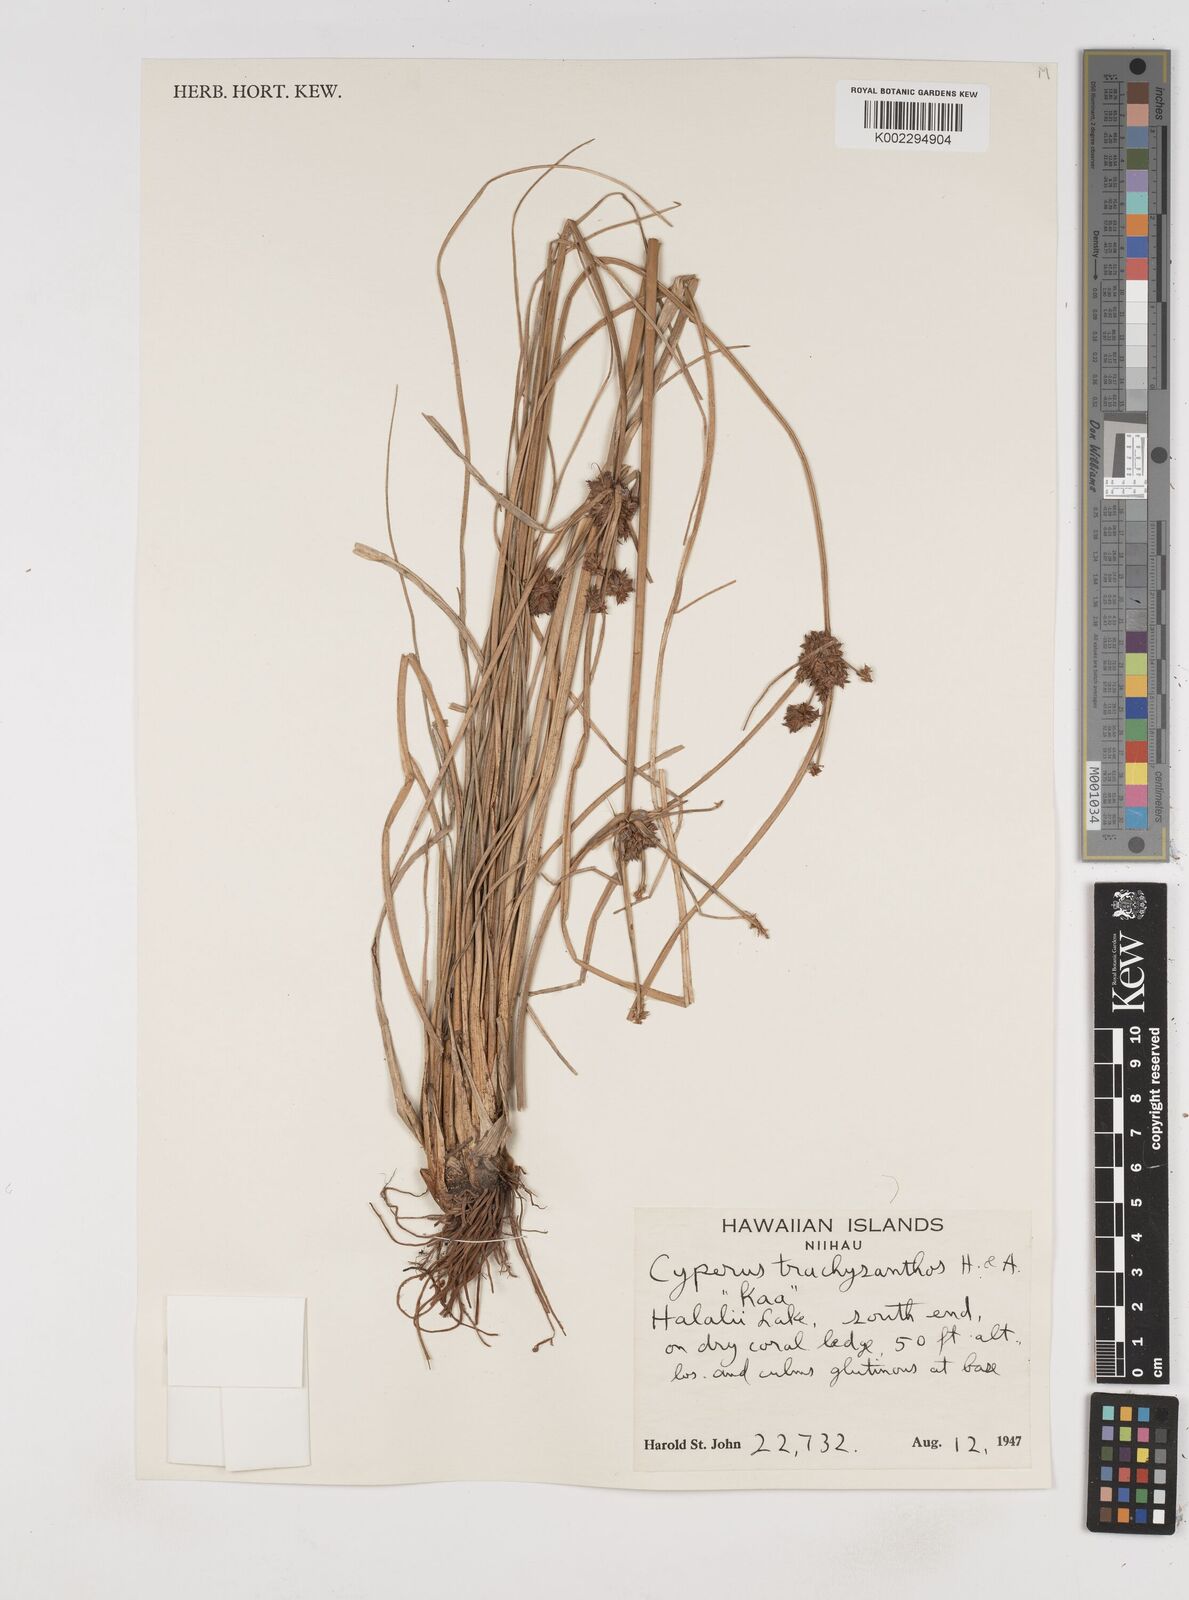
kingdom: Plantae
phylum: Tracheophyta
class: Liliopsida
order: Poales
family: Cyperaceae
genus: Cyperus
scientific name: Cyperus trachysanthos
